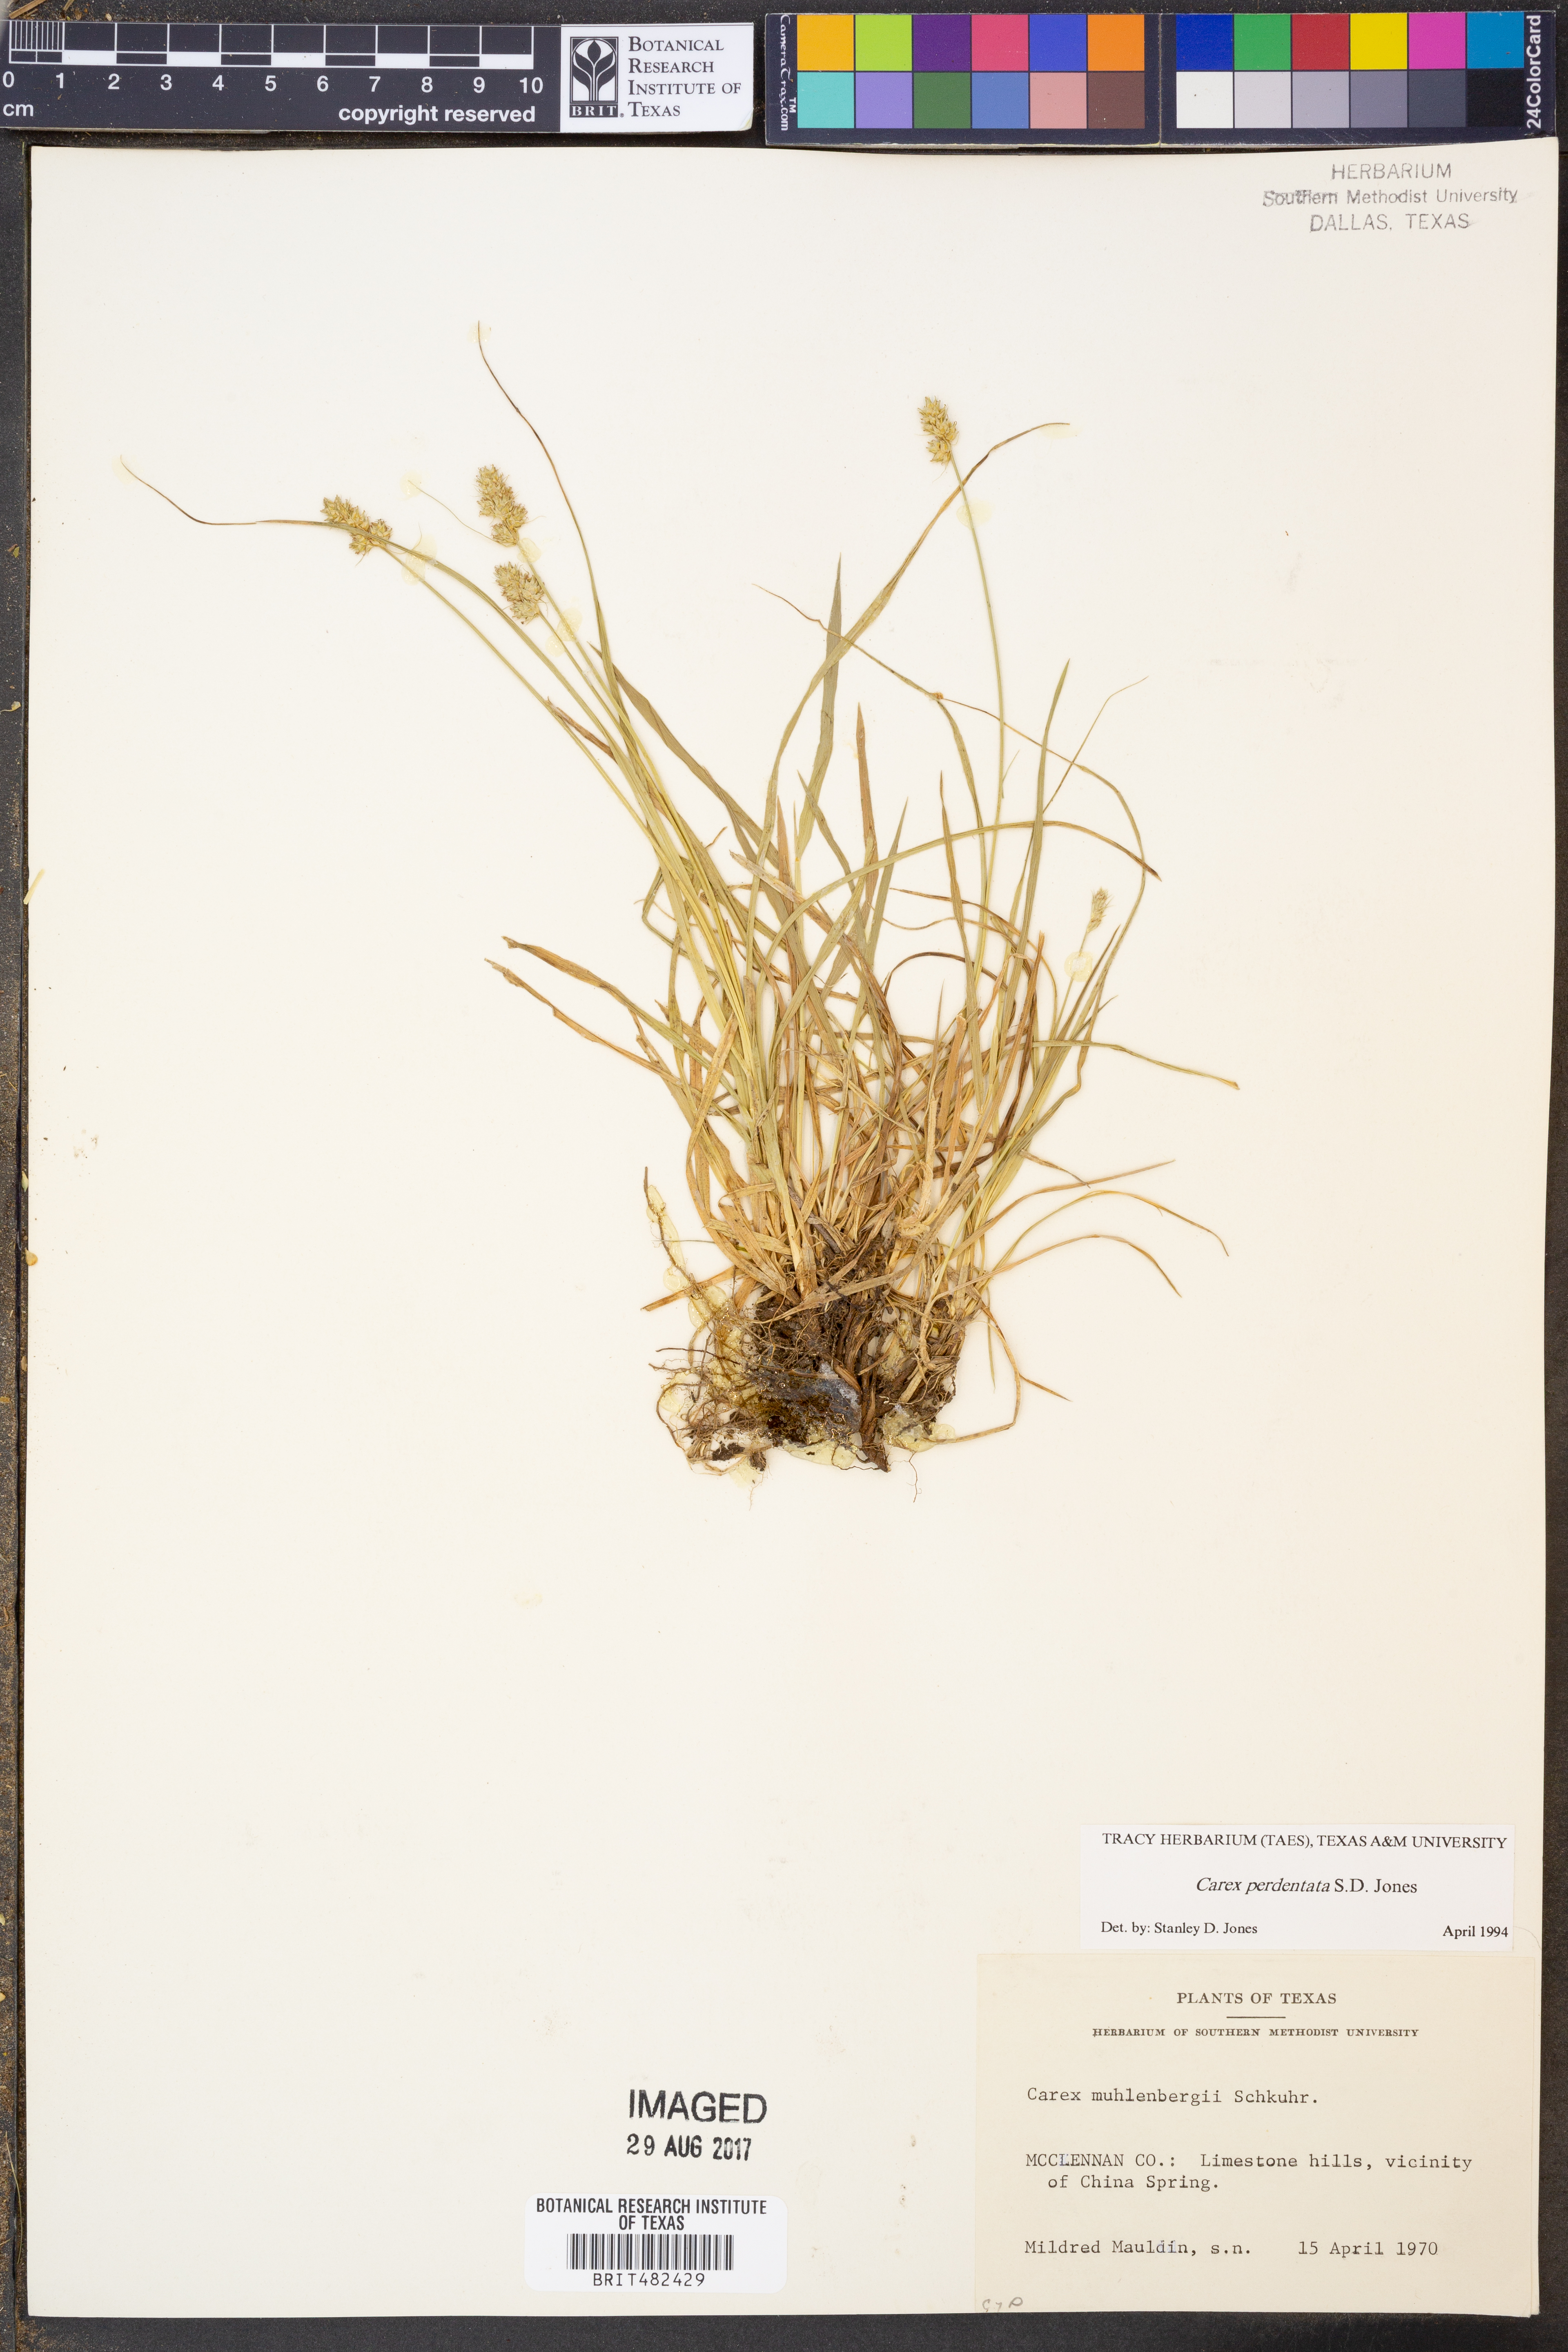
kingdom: Plantae
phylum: Tracheophyta
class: Liliopsida
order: Poales
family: Cyperaceae
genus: Carex
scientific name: Carex perdentata
